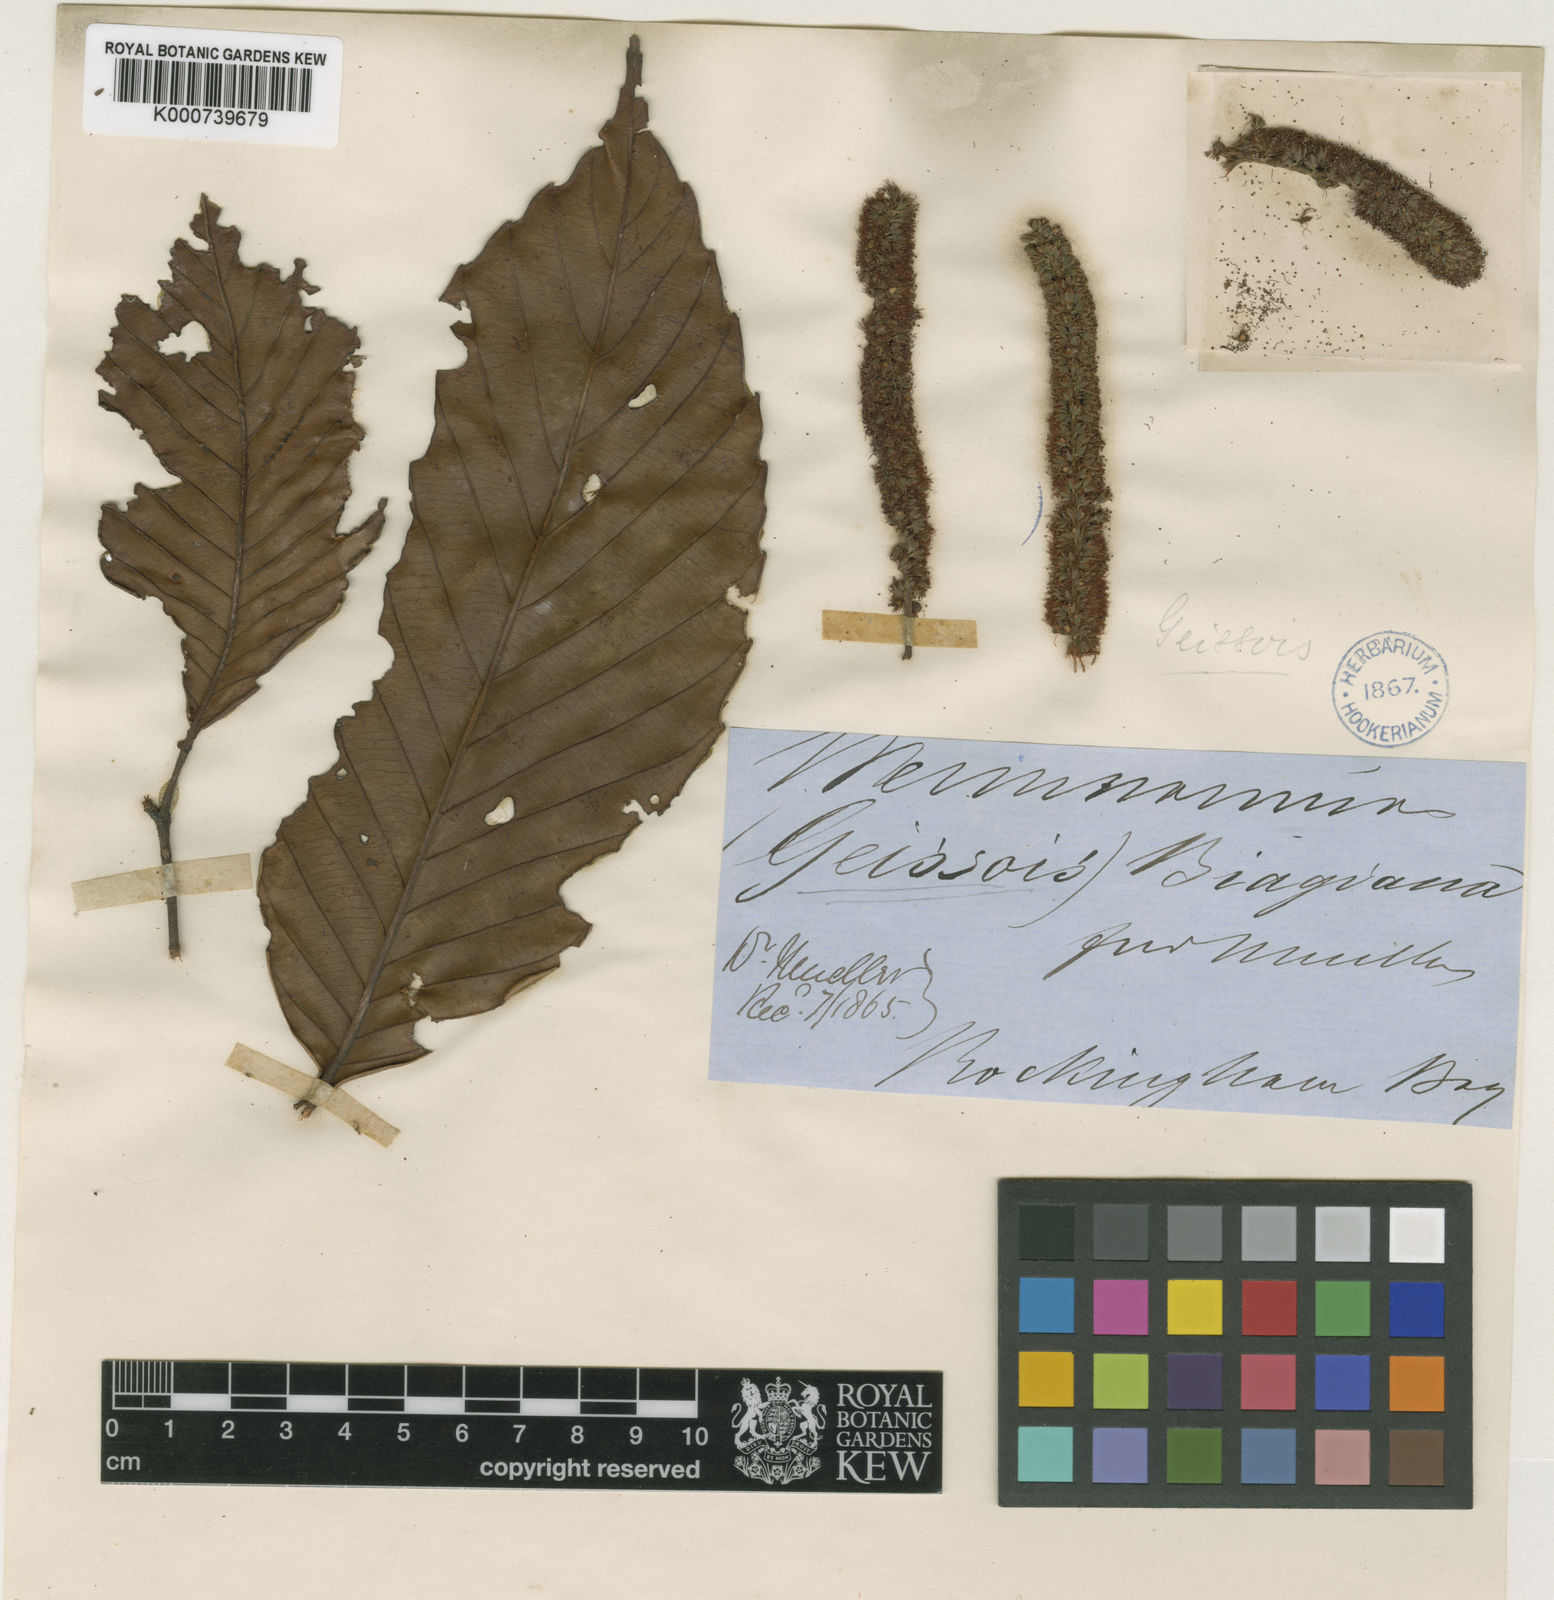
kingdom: Plantae
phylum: Tracheophyta
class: Magnoliopsida
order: Oxalidales
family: Cunoniaceae
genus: Karrabina
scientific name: Karrabina biagiana
